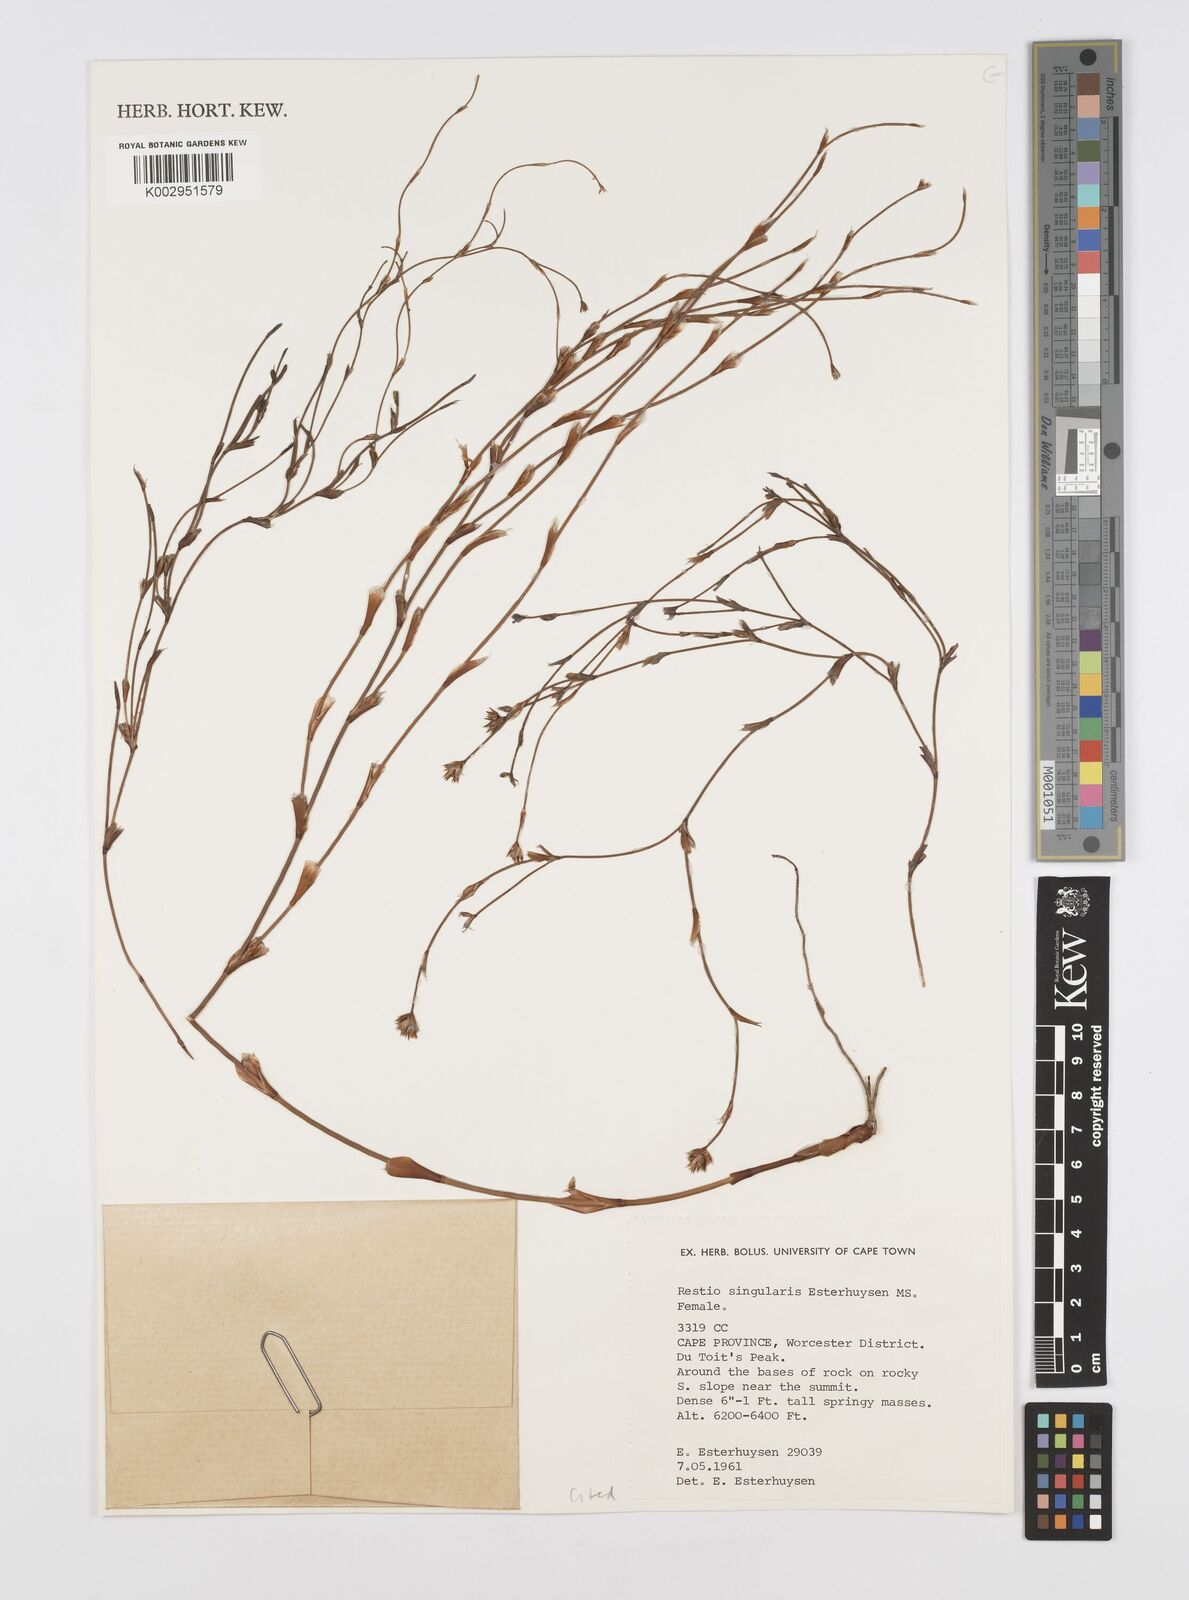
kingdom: Plantae
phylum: Tracheophyta
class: Liliopsida
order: Poales
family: Restionaceae
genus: Restio
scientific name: Restio singularis
